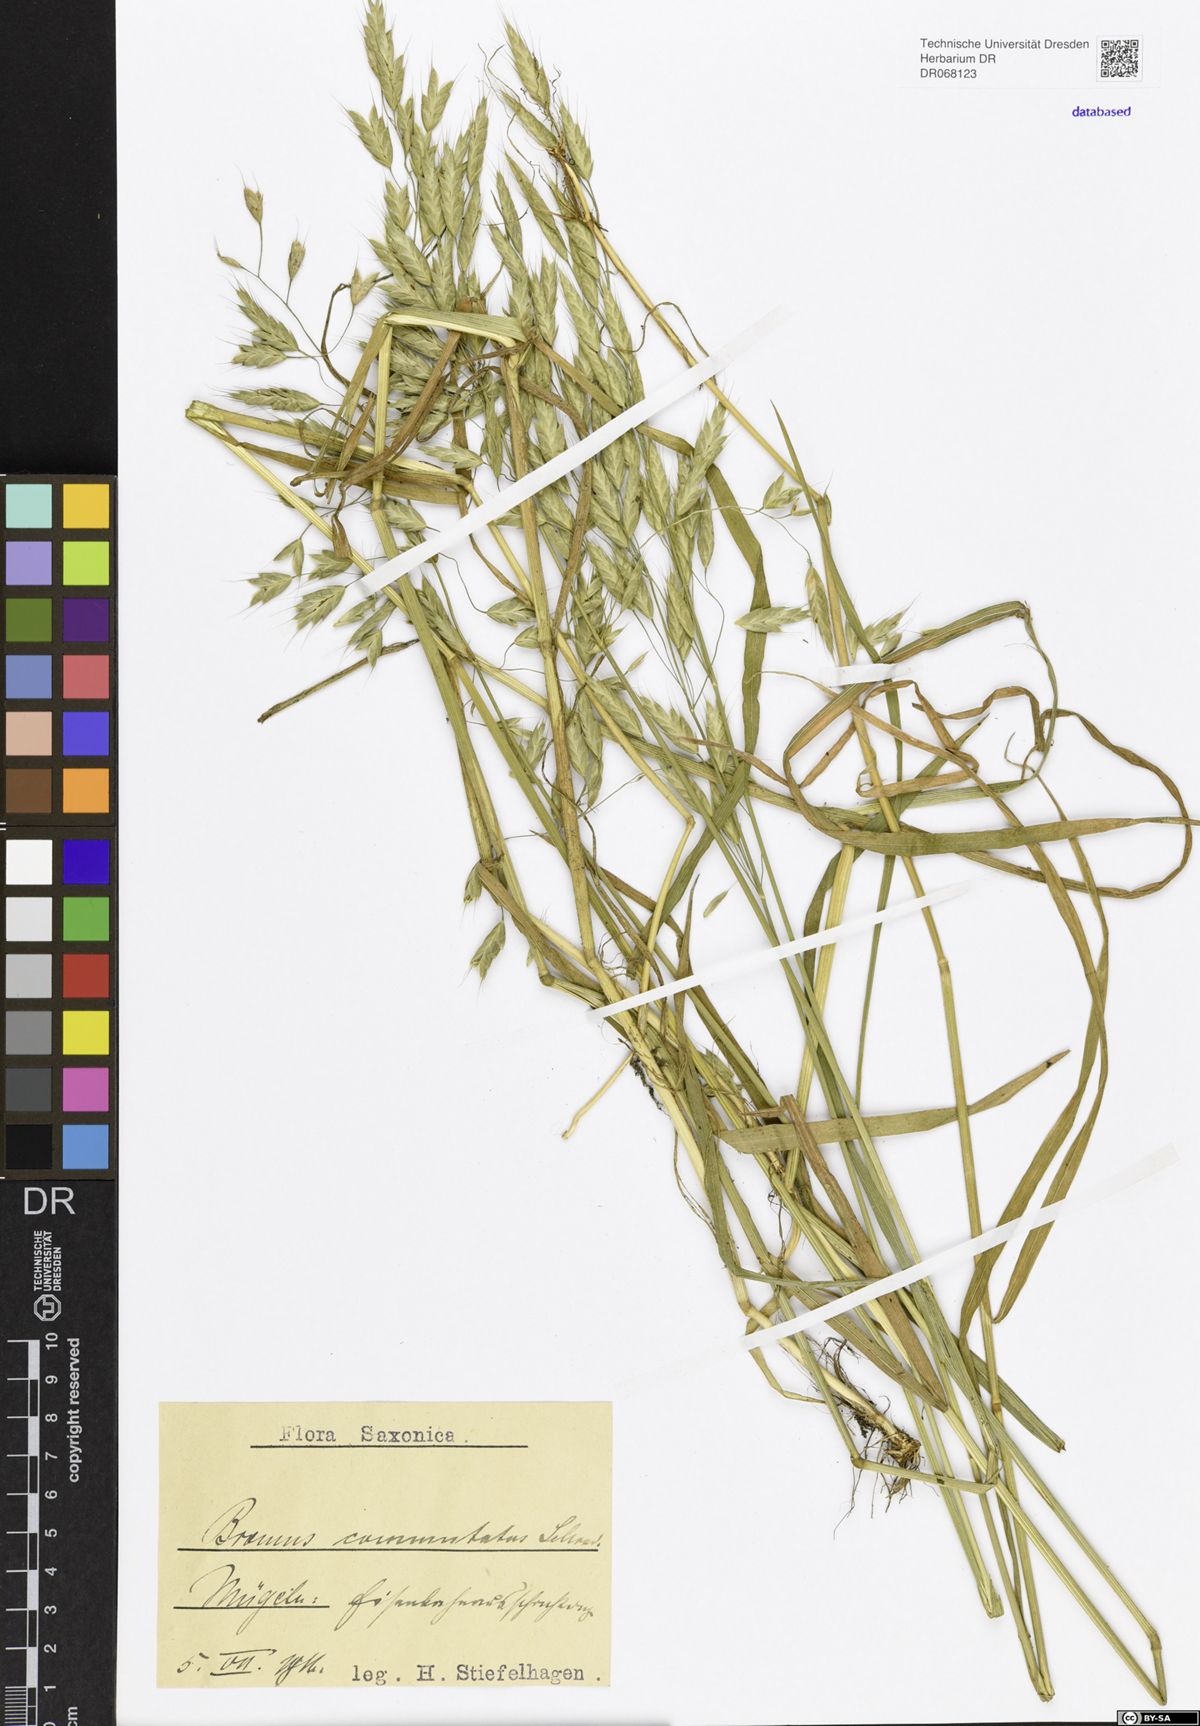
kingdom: Plantae
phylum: Tracheophyta
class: Liliopsida
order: Poales
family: Poaceae
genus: Bromus
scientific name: Bromus commutatus
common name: Meadow brome
